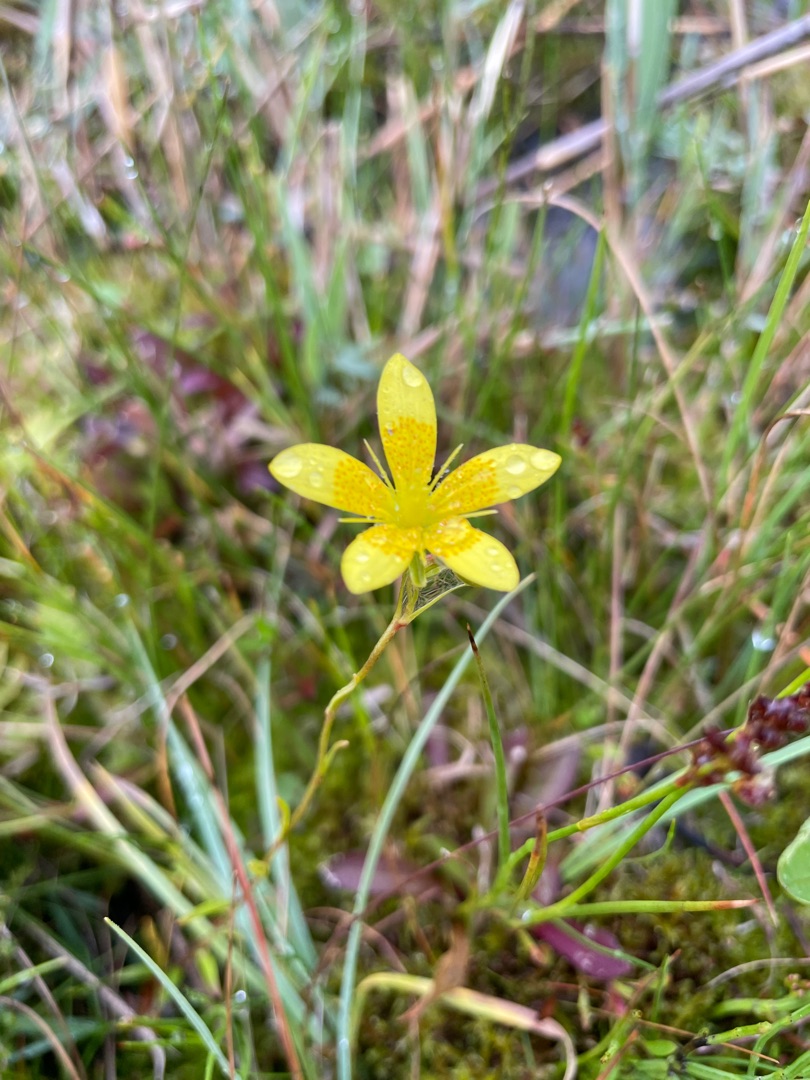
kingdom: Plantae
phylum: Tracheophyta
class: Magnoliopsida
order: Saxifragales
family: Saxifragaceae
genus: Saxifraga
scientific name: Saxifraga hirculus
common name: Gul stenbræk
